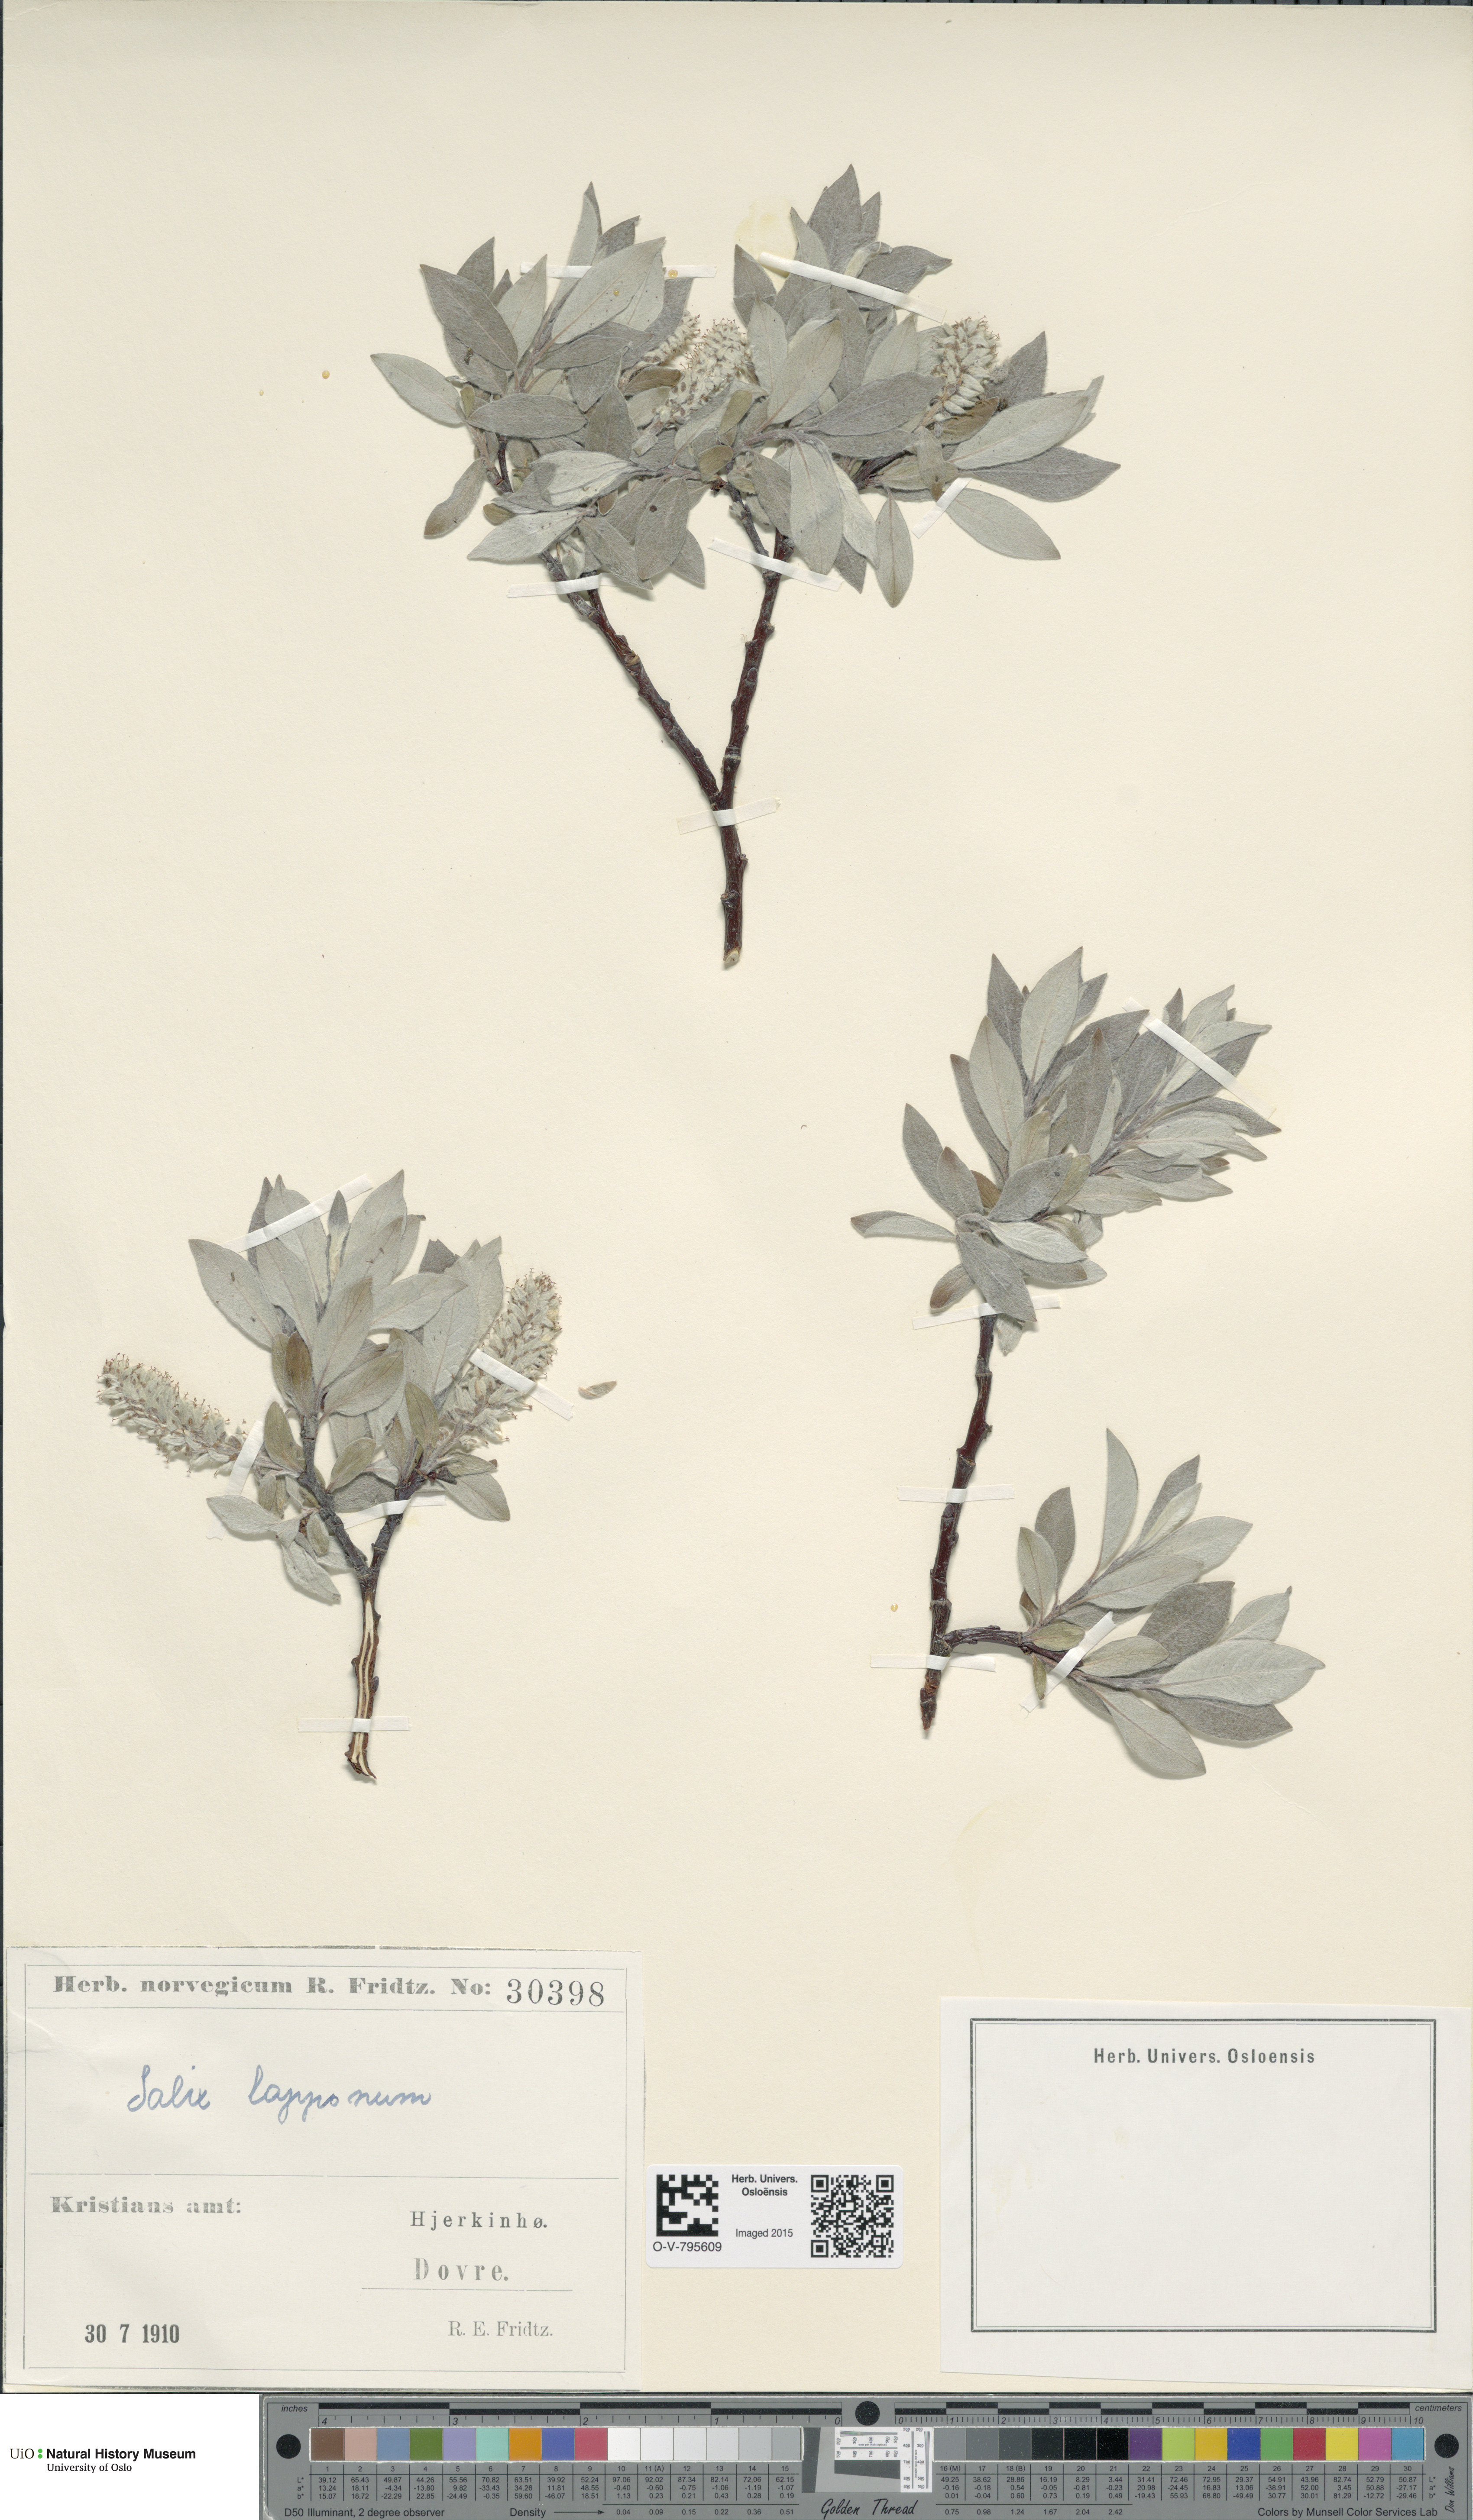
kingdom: Plantae
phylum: Tracheophyta
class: Magnoliopsida
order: Malpighiales
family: Salicaceae
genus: Salix
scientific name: Salix lapponum
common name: Downy willow
